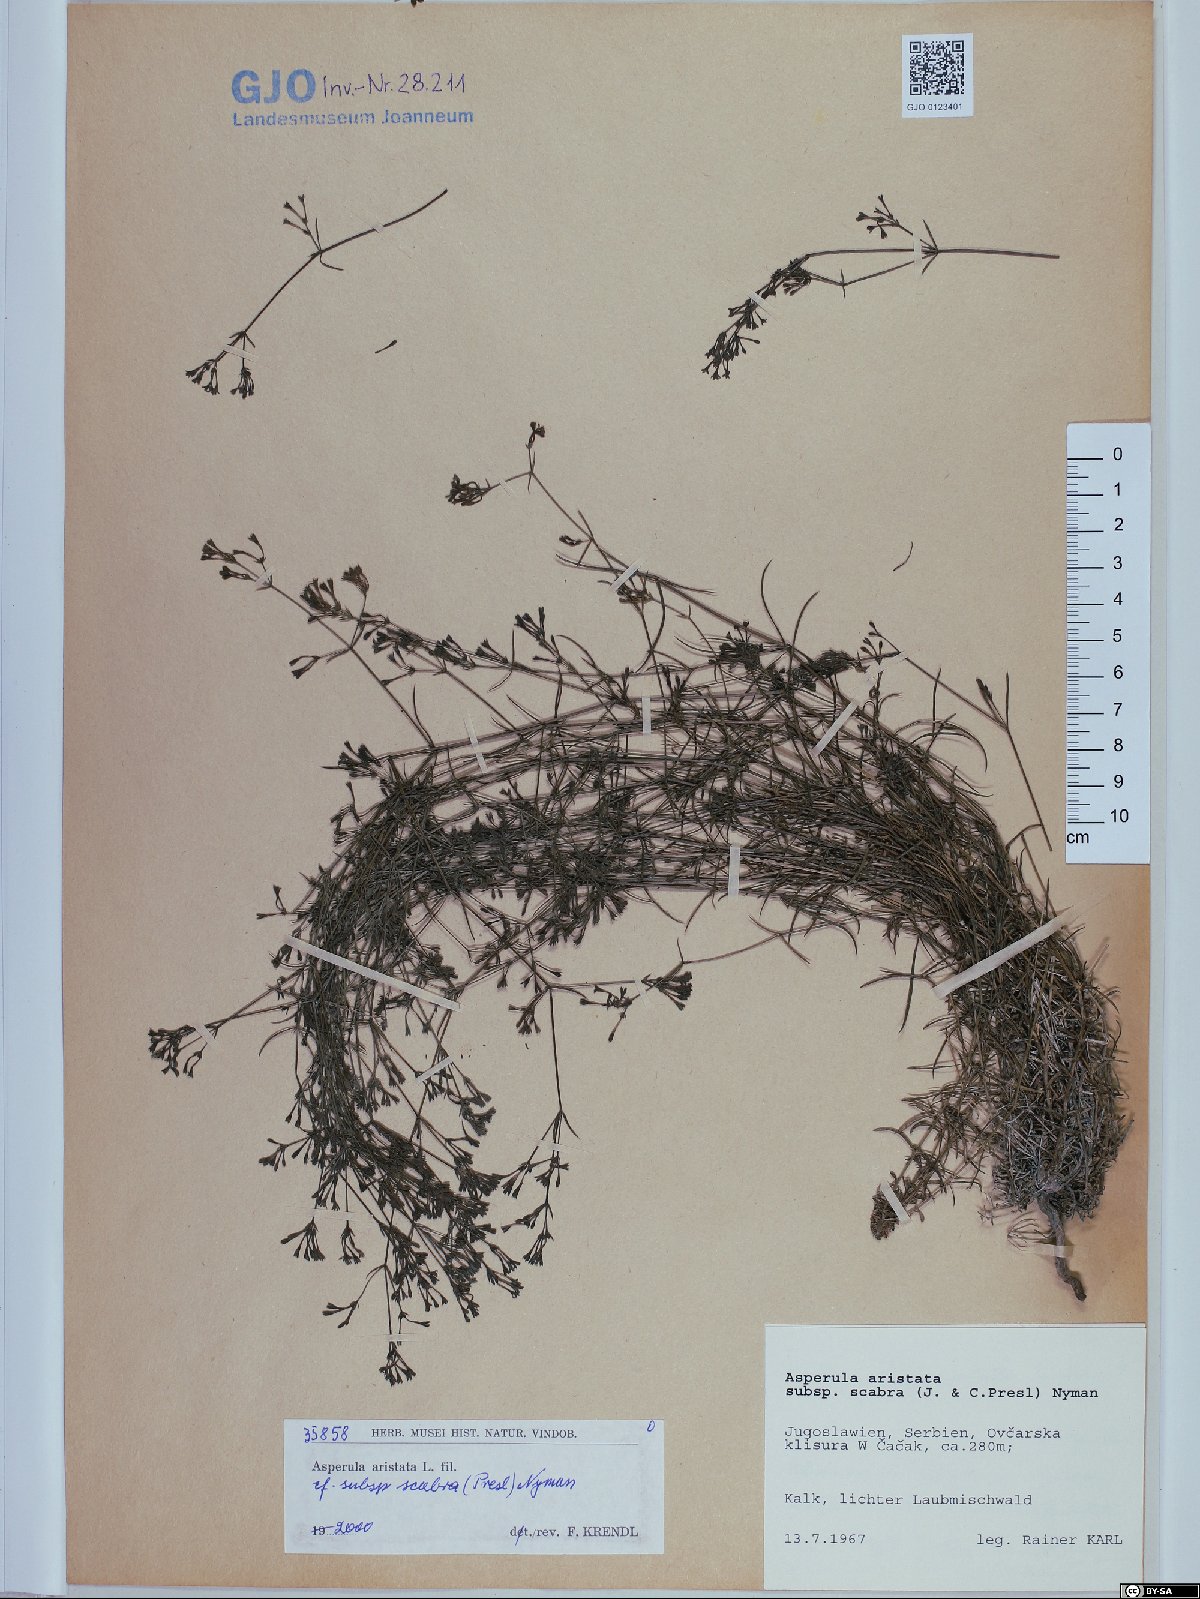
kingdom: Plantae
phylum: Tracheophyta
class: Magnoliopsida
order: Gentianales
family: Rubiaceae
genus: Cynanchica
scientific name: Cynanchica aristata
